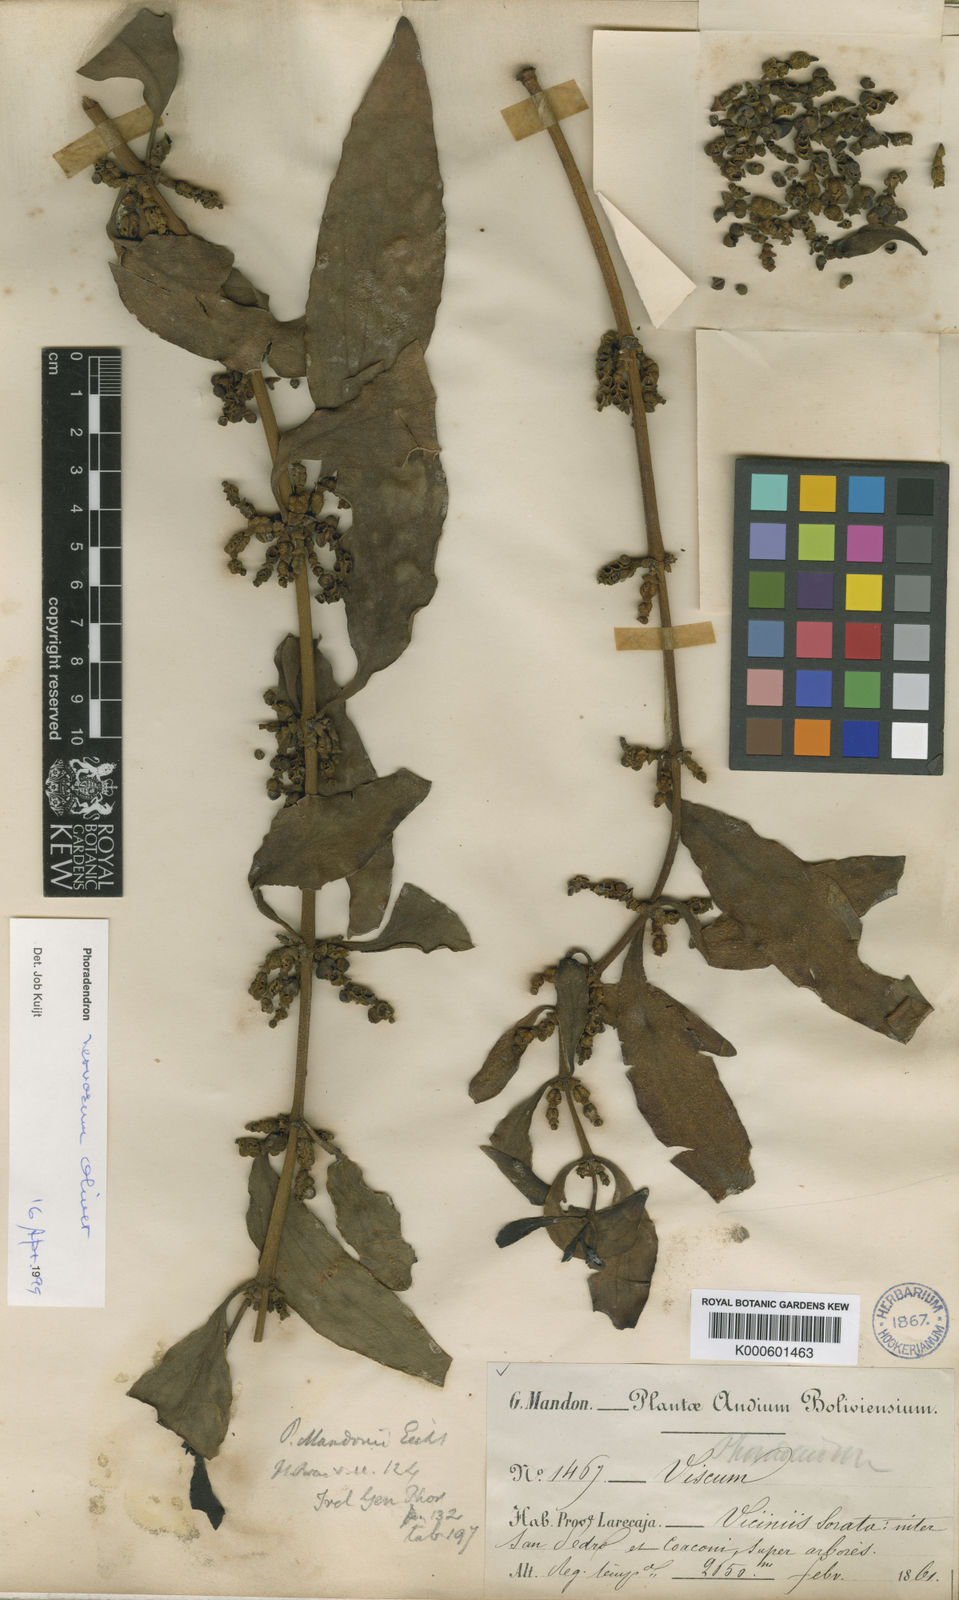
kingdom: Plantae
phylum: Tracheophyta
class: Magnoliopsida
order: Santalales
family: Viscaceae
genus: Phoradendron
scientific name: Phoradendron nervosum
